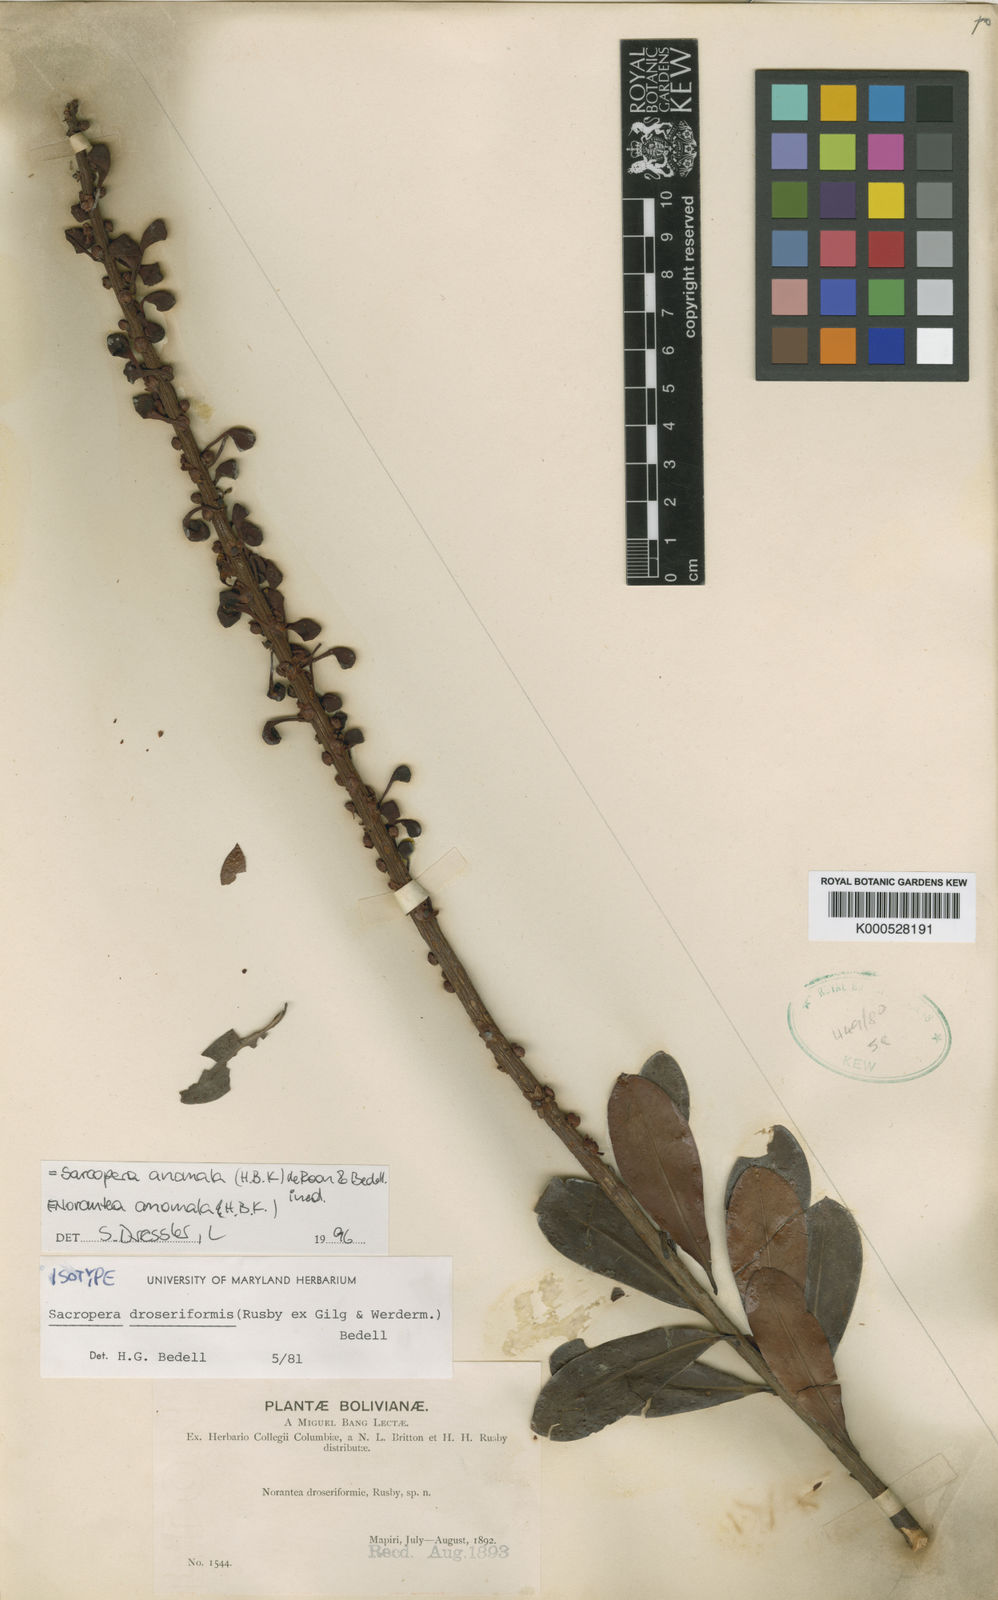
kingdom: Plantae
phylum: Tracheophyta
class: Magnoliopsida
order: Ericales
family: Marcgraviaceae
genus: Sarcopera
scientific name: Sarcopera anomala
